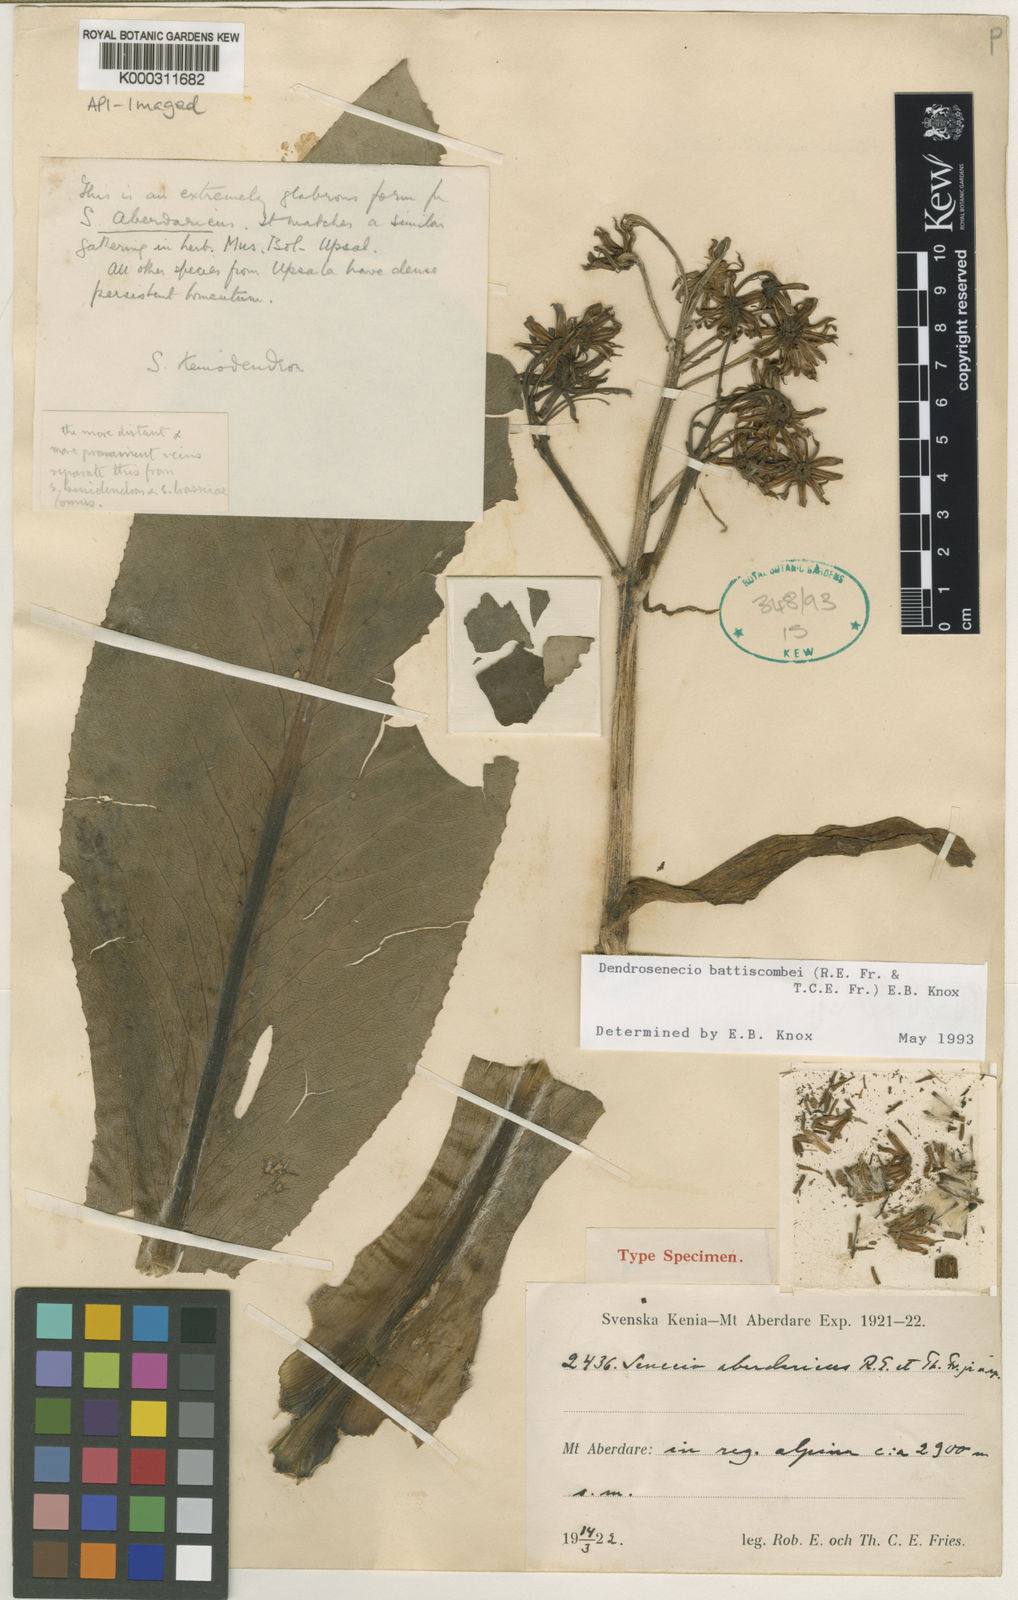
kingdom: Plantae
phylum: Tracheophyta
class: Magnoliopsida
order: Asterales
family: Asteraceae
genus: Dendrosenecio
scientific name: Dendrosenecio battiscombei
